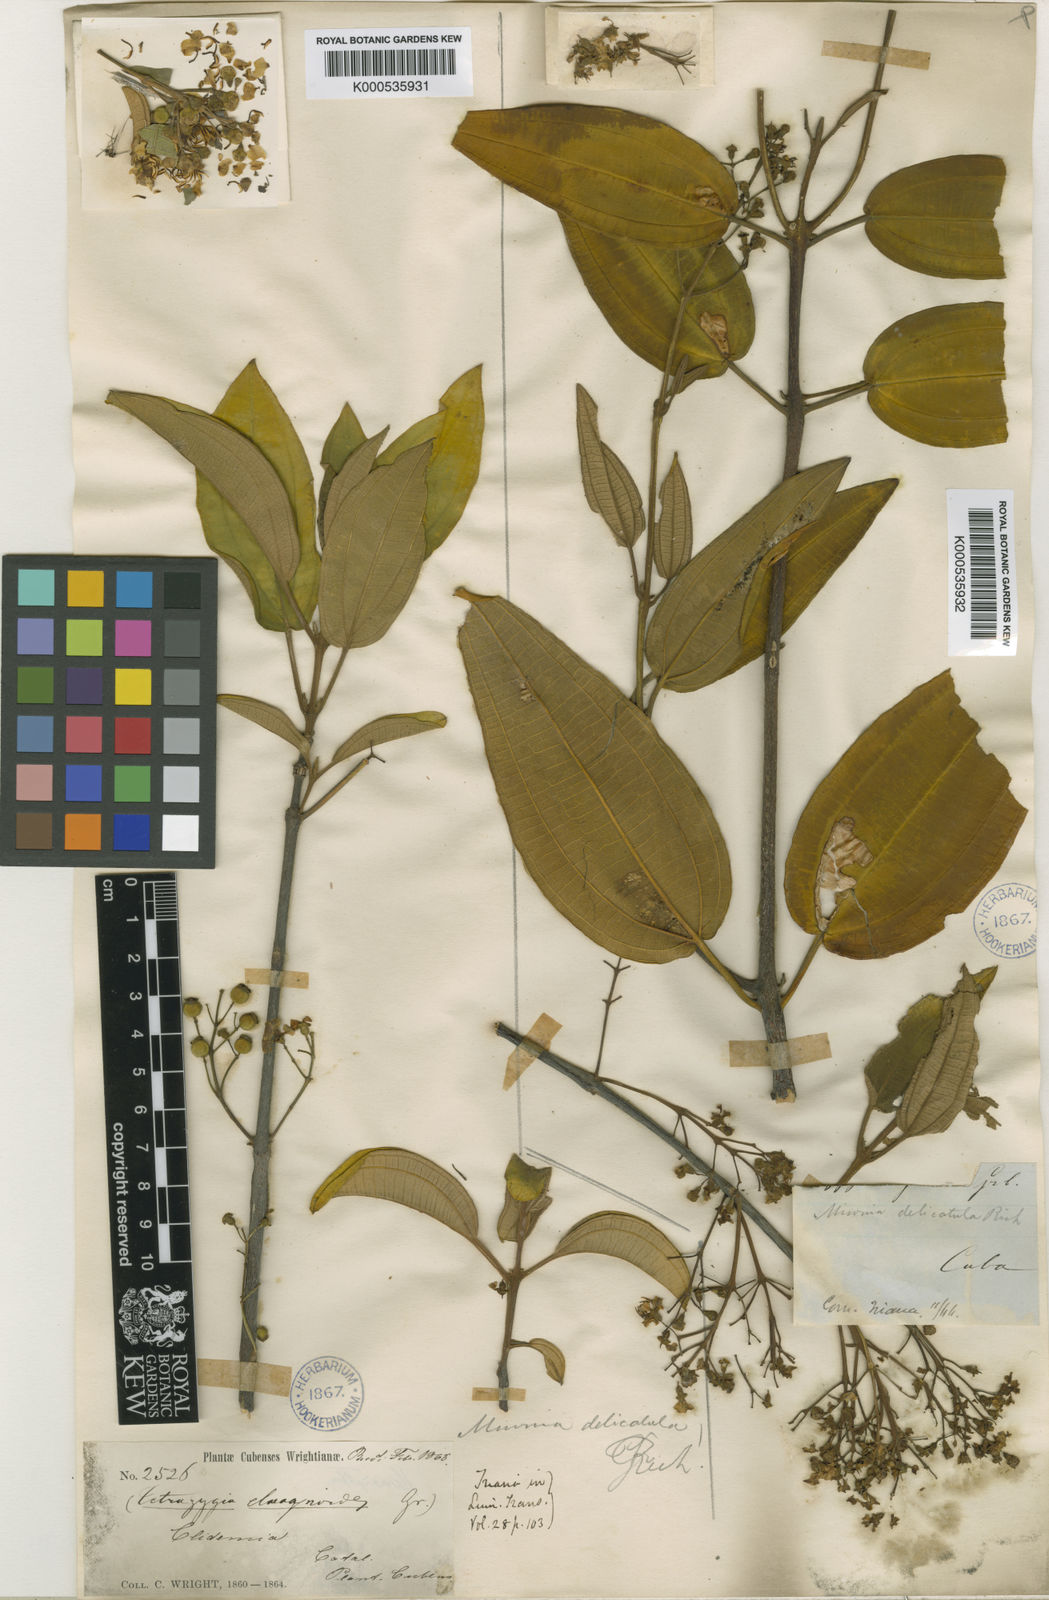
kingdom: Plantae
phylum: Tracheophyta
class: Magnoliopsida
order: Myrtales
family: Melastomataceae
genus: Miconia
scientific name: Miconia delicatula
